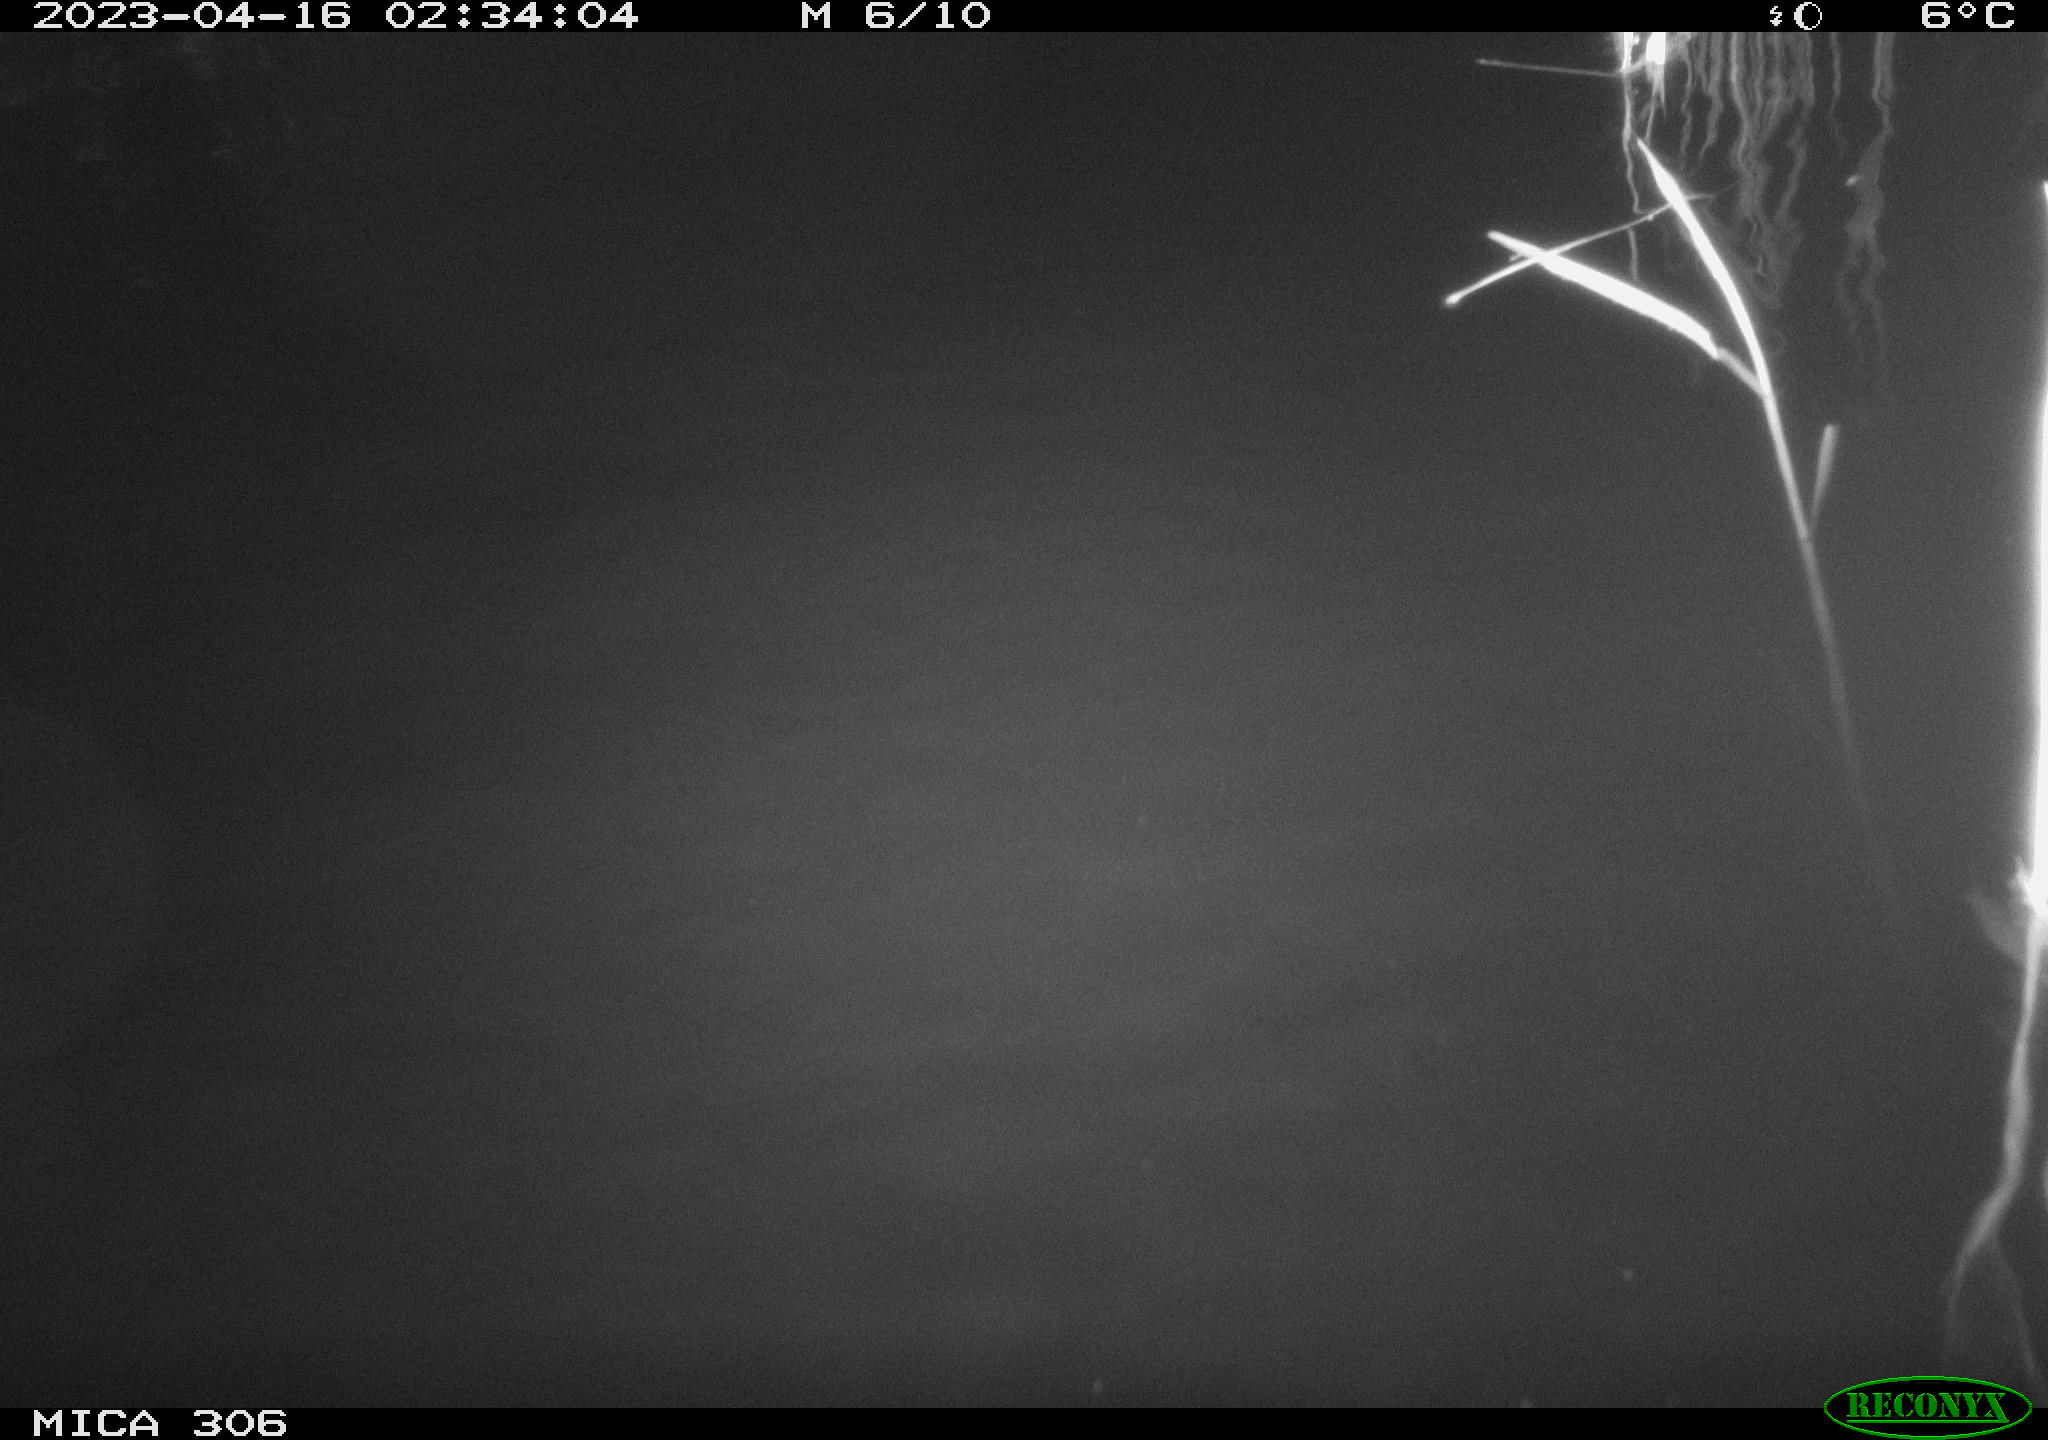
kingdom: Animalia
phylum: Chordata
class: Aves
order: Anseriformes
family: Anatidae
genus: Anas
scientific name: Anas
